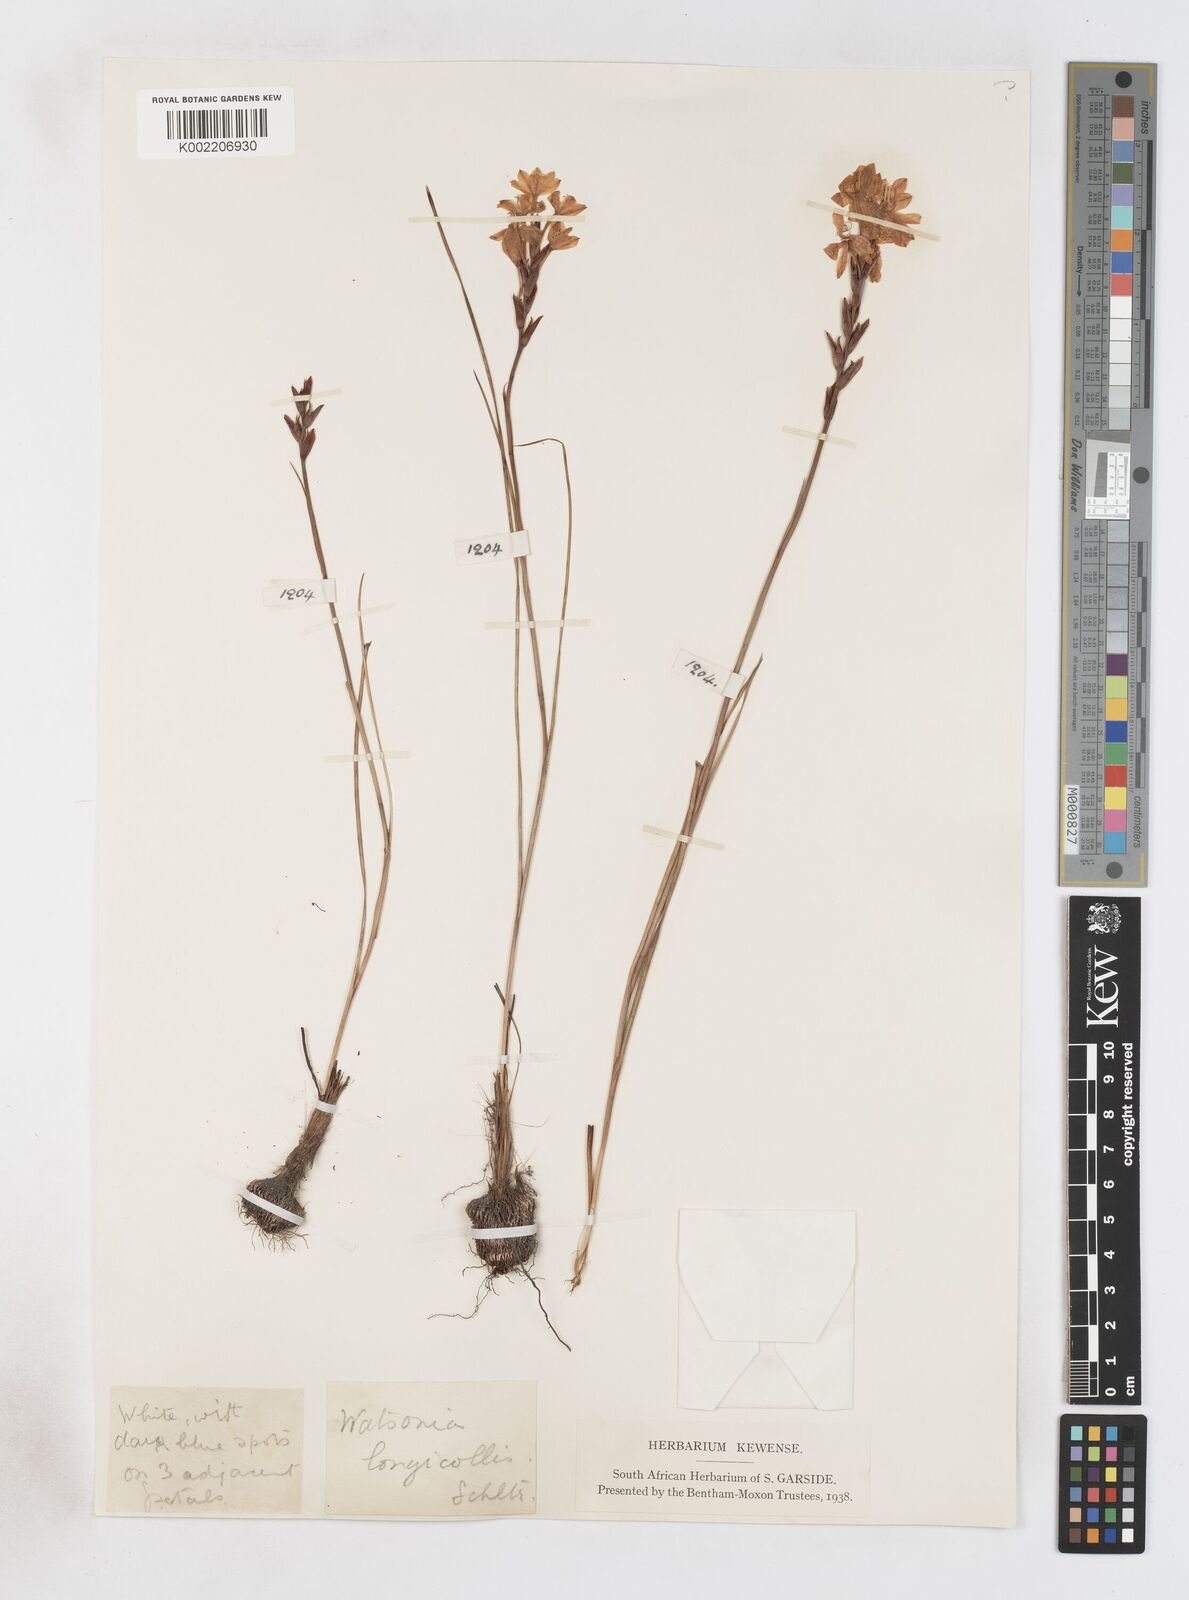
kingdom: Plantae
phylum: Tracheophyta
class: Liliopsida
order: Asparagales
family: Iridaceae
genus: Thereianthus
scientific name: Thereianthus spicatus
